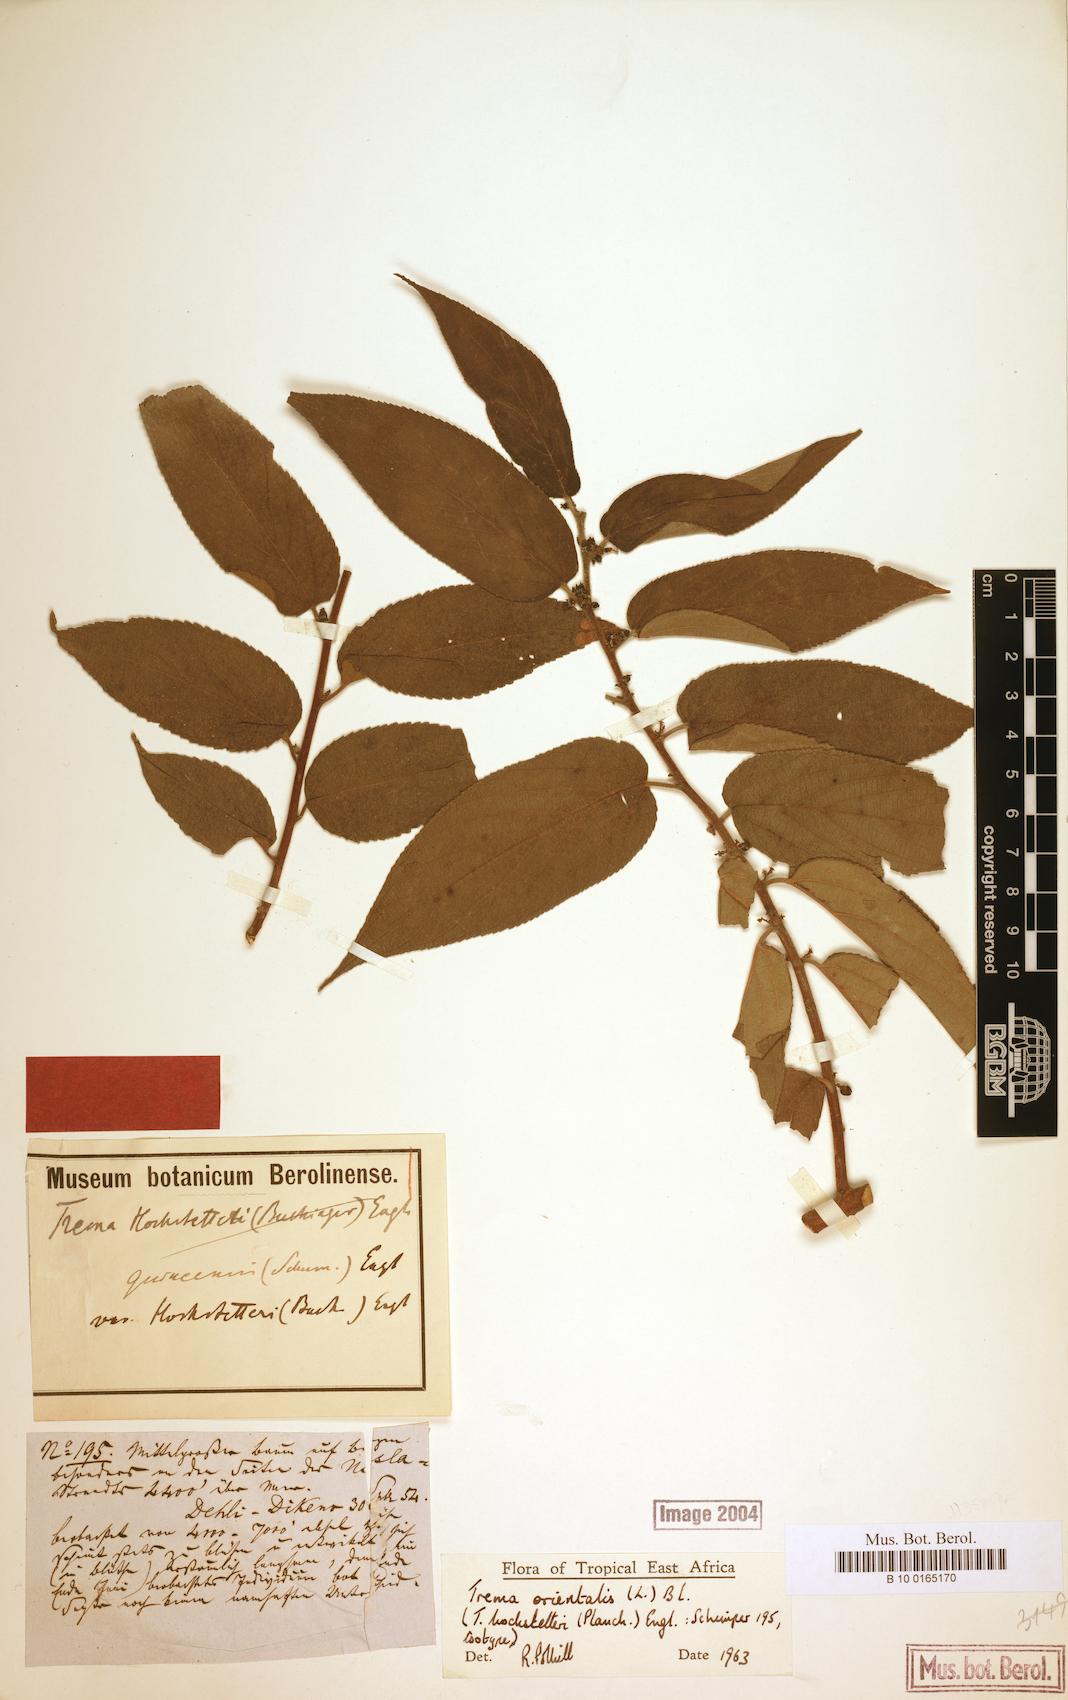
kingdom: Plantae
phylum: Tracheophyta
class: Magnoliopsida
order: Rosales
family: Cannabaceae
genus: Trema
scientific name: Trema orientale
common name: Indian charcoal tree
